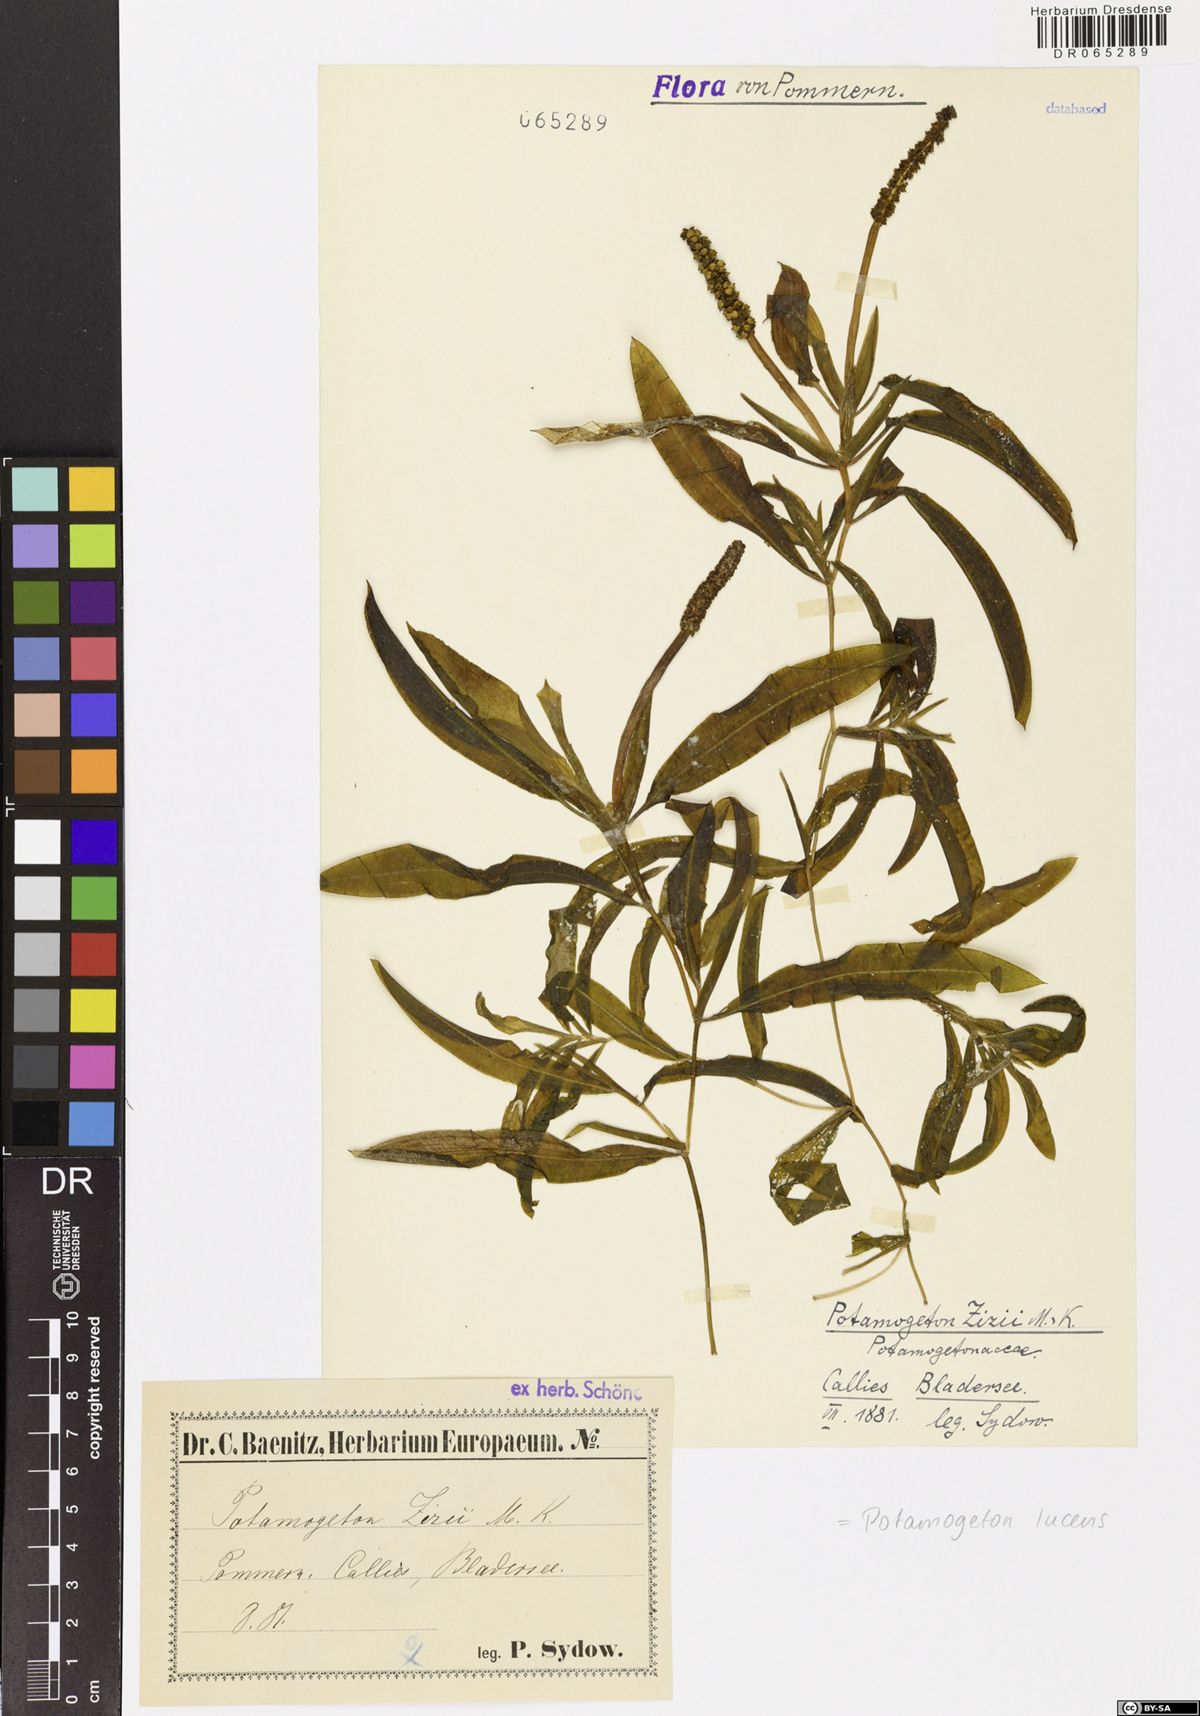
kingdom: Plantae
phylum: Tracheophyta
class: Liliopsida
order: Alismatales
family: Potamogetonaceae
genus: Potamogeton
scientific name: Potamogeton lucens
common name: Shining pondweed
